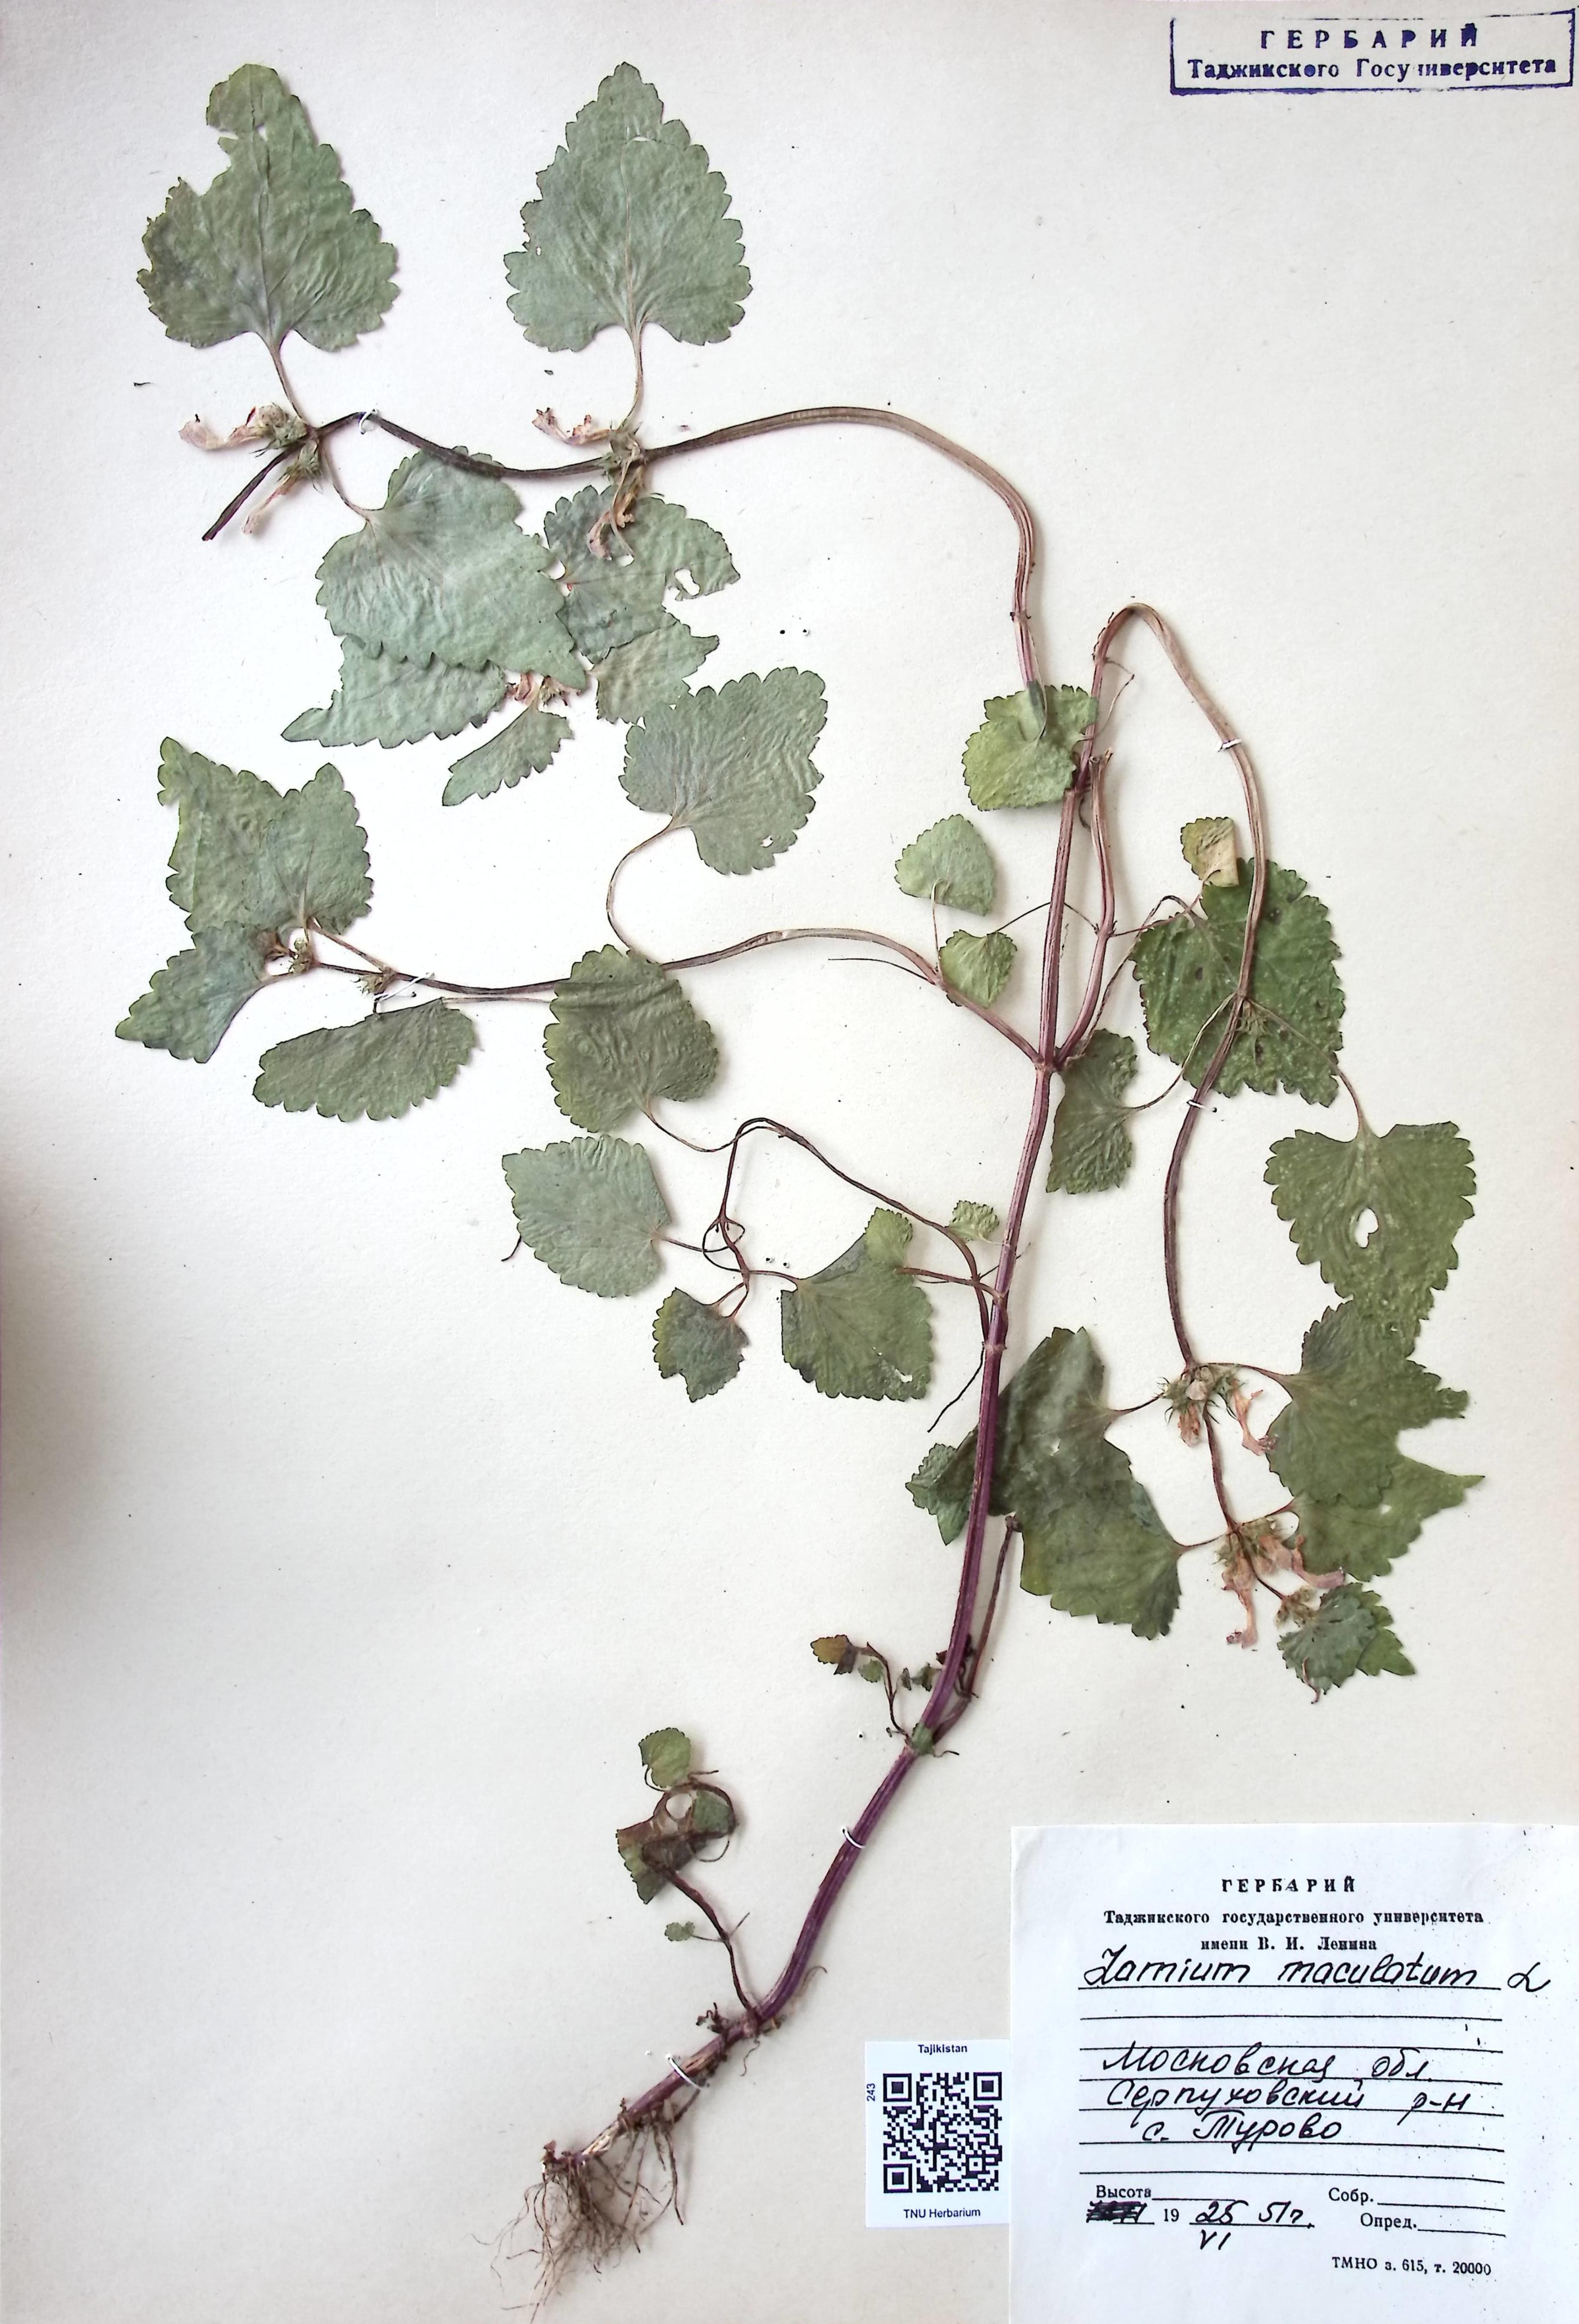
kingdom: Plantae
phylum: Tracheophyta
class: Magnoliopsida
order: Lamiales
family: Lamiaceae
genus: Lamium
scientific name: Lamium maculatum
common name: Spotted dead-nettle
